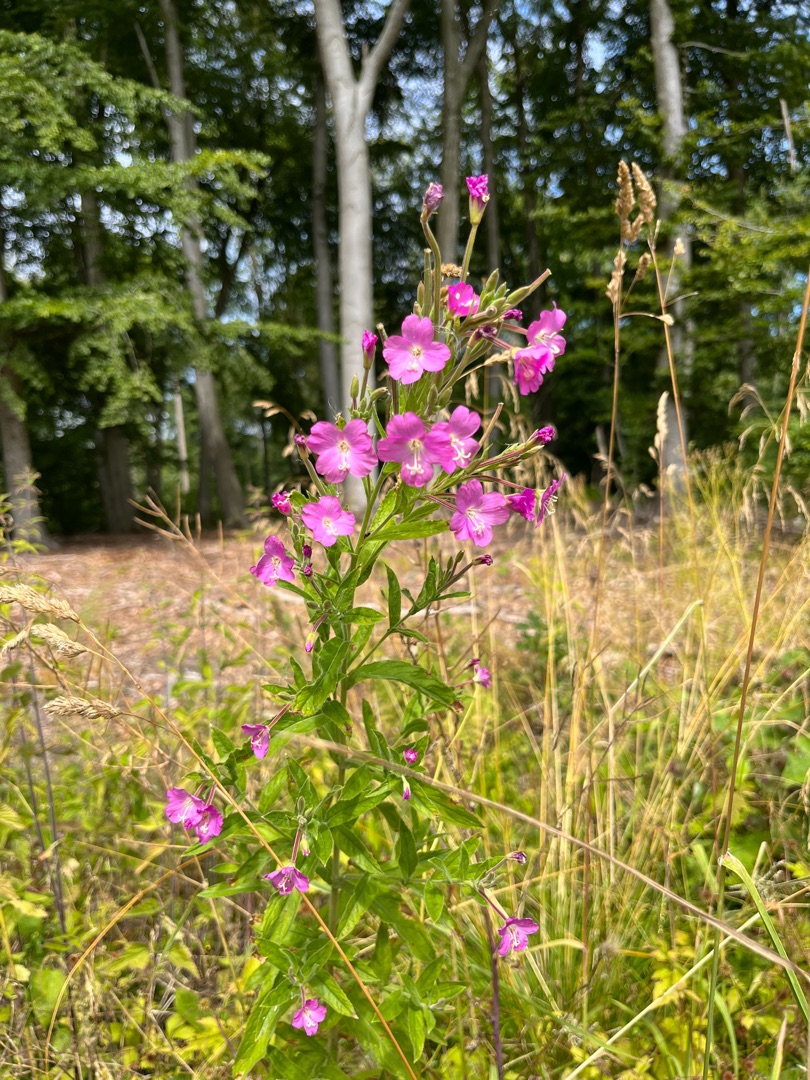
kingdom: Plantae
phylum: Tracheophyta
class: Magnoliopsida
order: Myrtales
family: Onagraceae
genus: Epilobium
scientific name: Epilobium hirsutum
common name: Lådden dueurt
